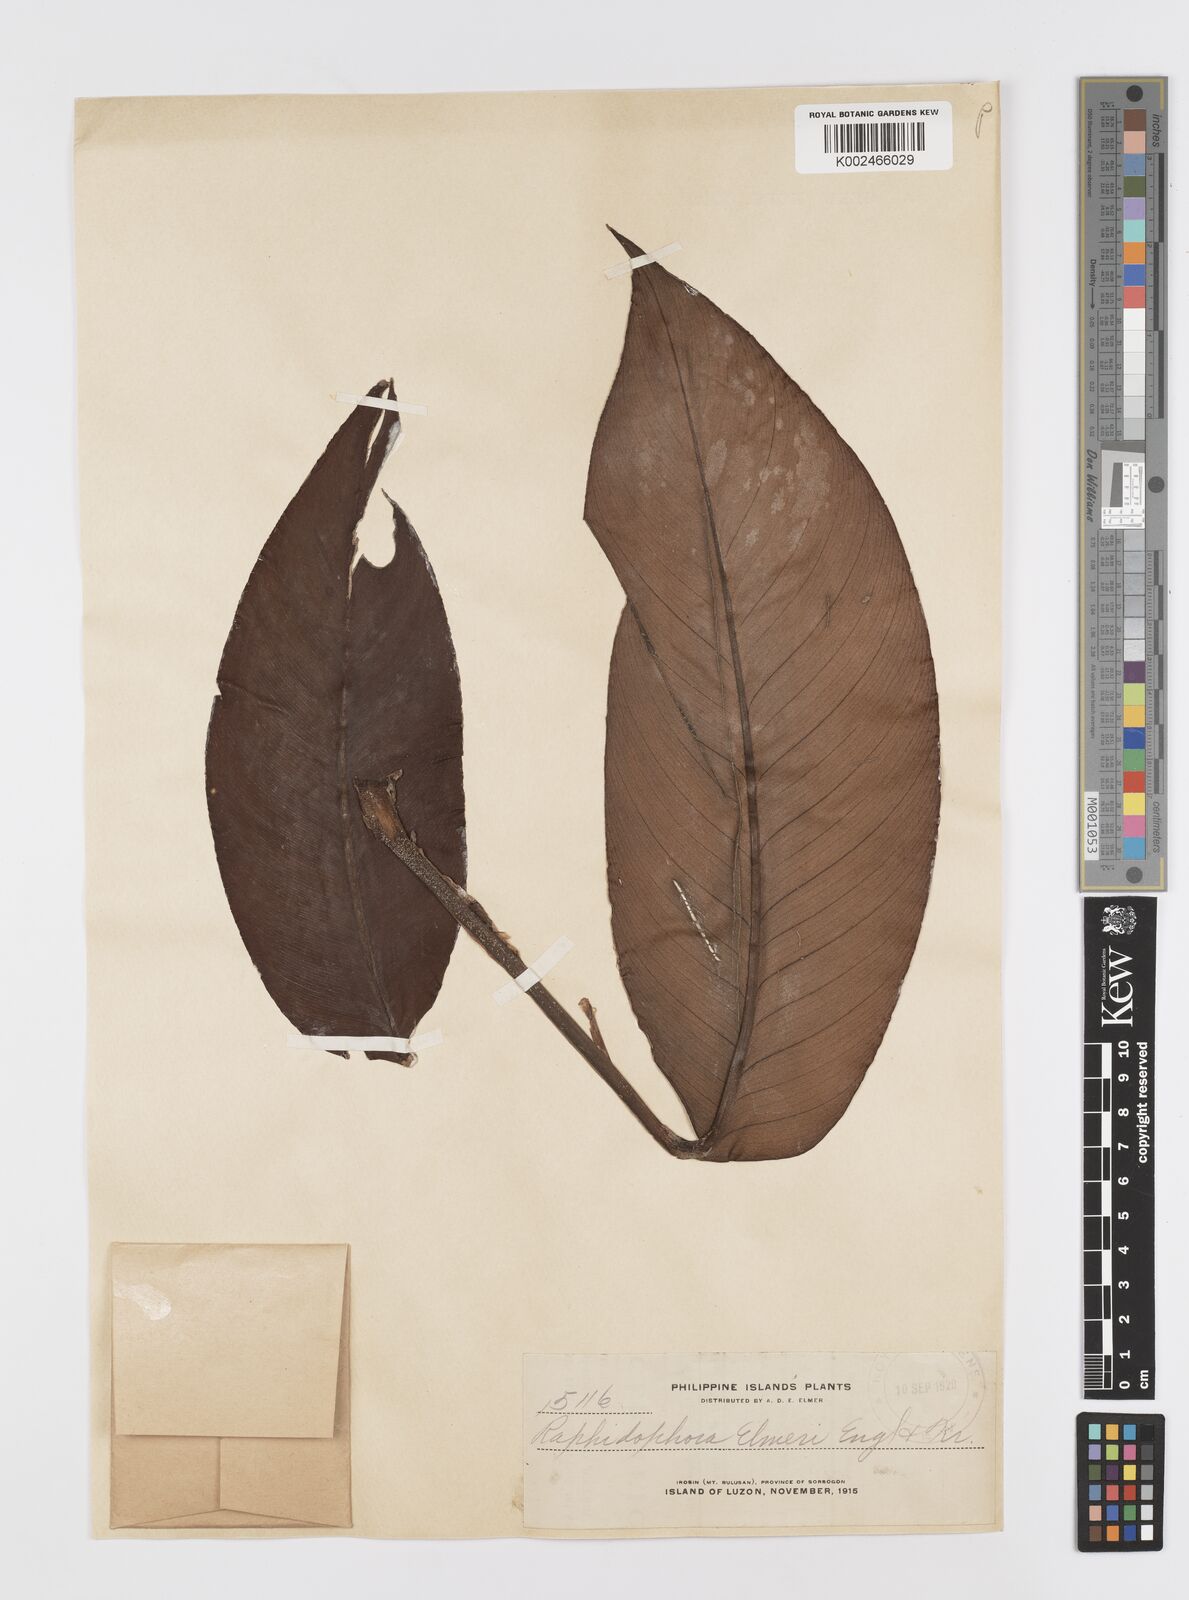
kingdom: Plantae
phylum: Tracheophyta
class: Liliopsida
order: Alismatales
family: Araceae
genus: Rhaphidophora
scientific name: Rhaphidophora elmeri
